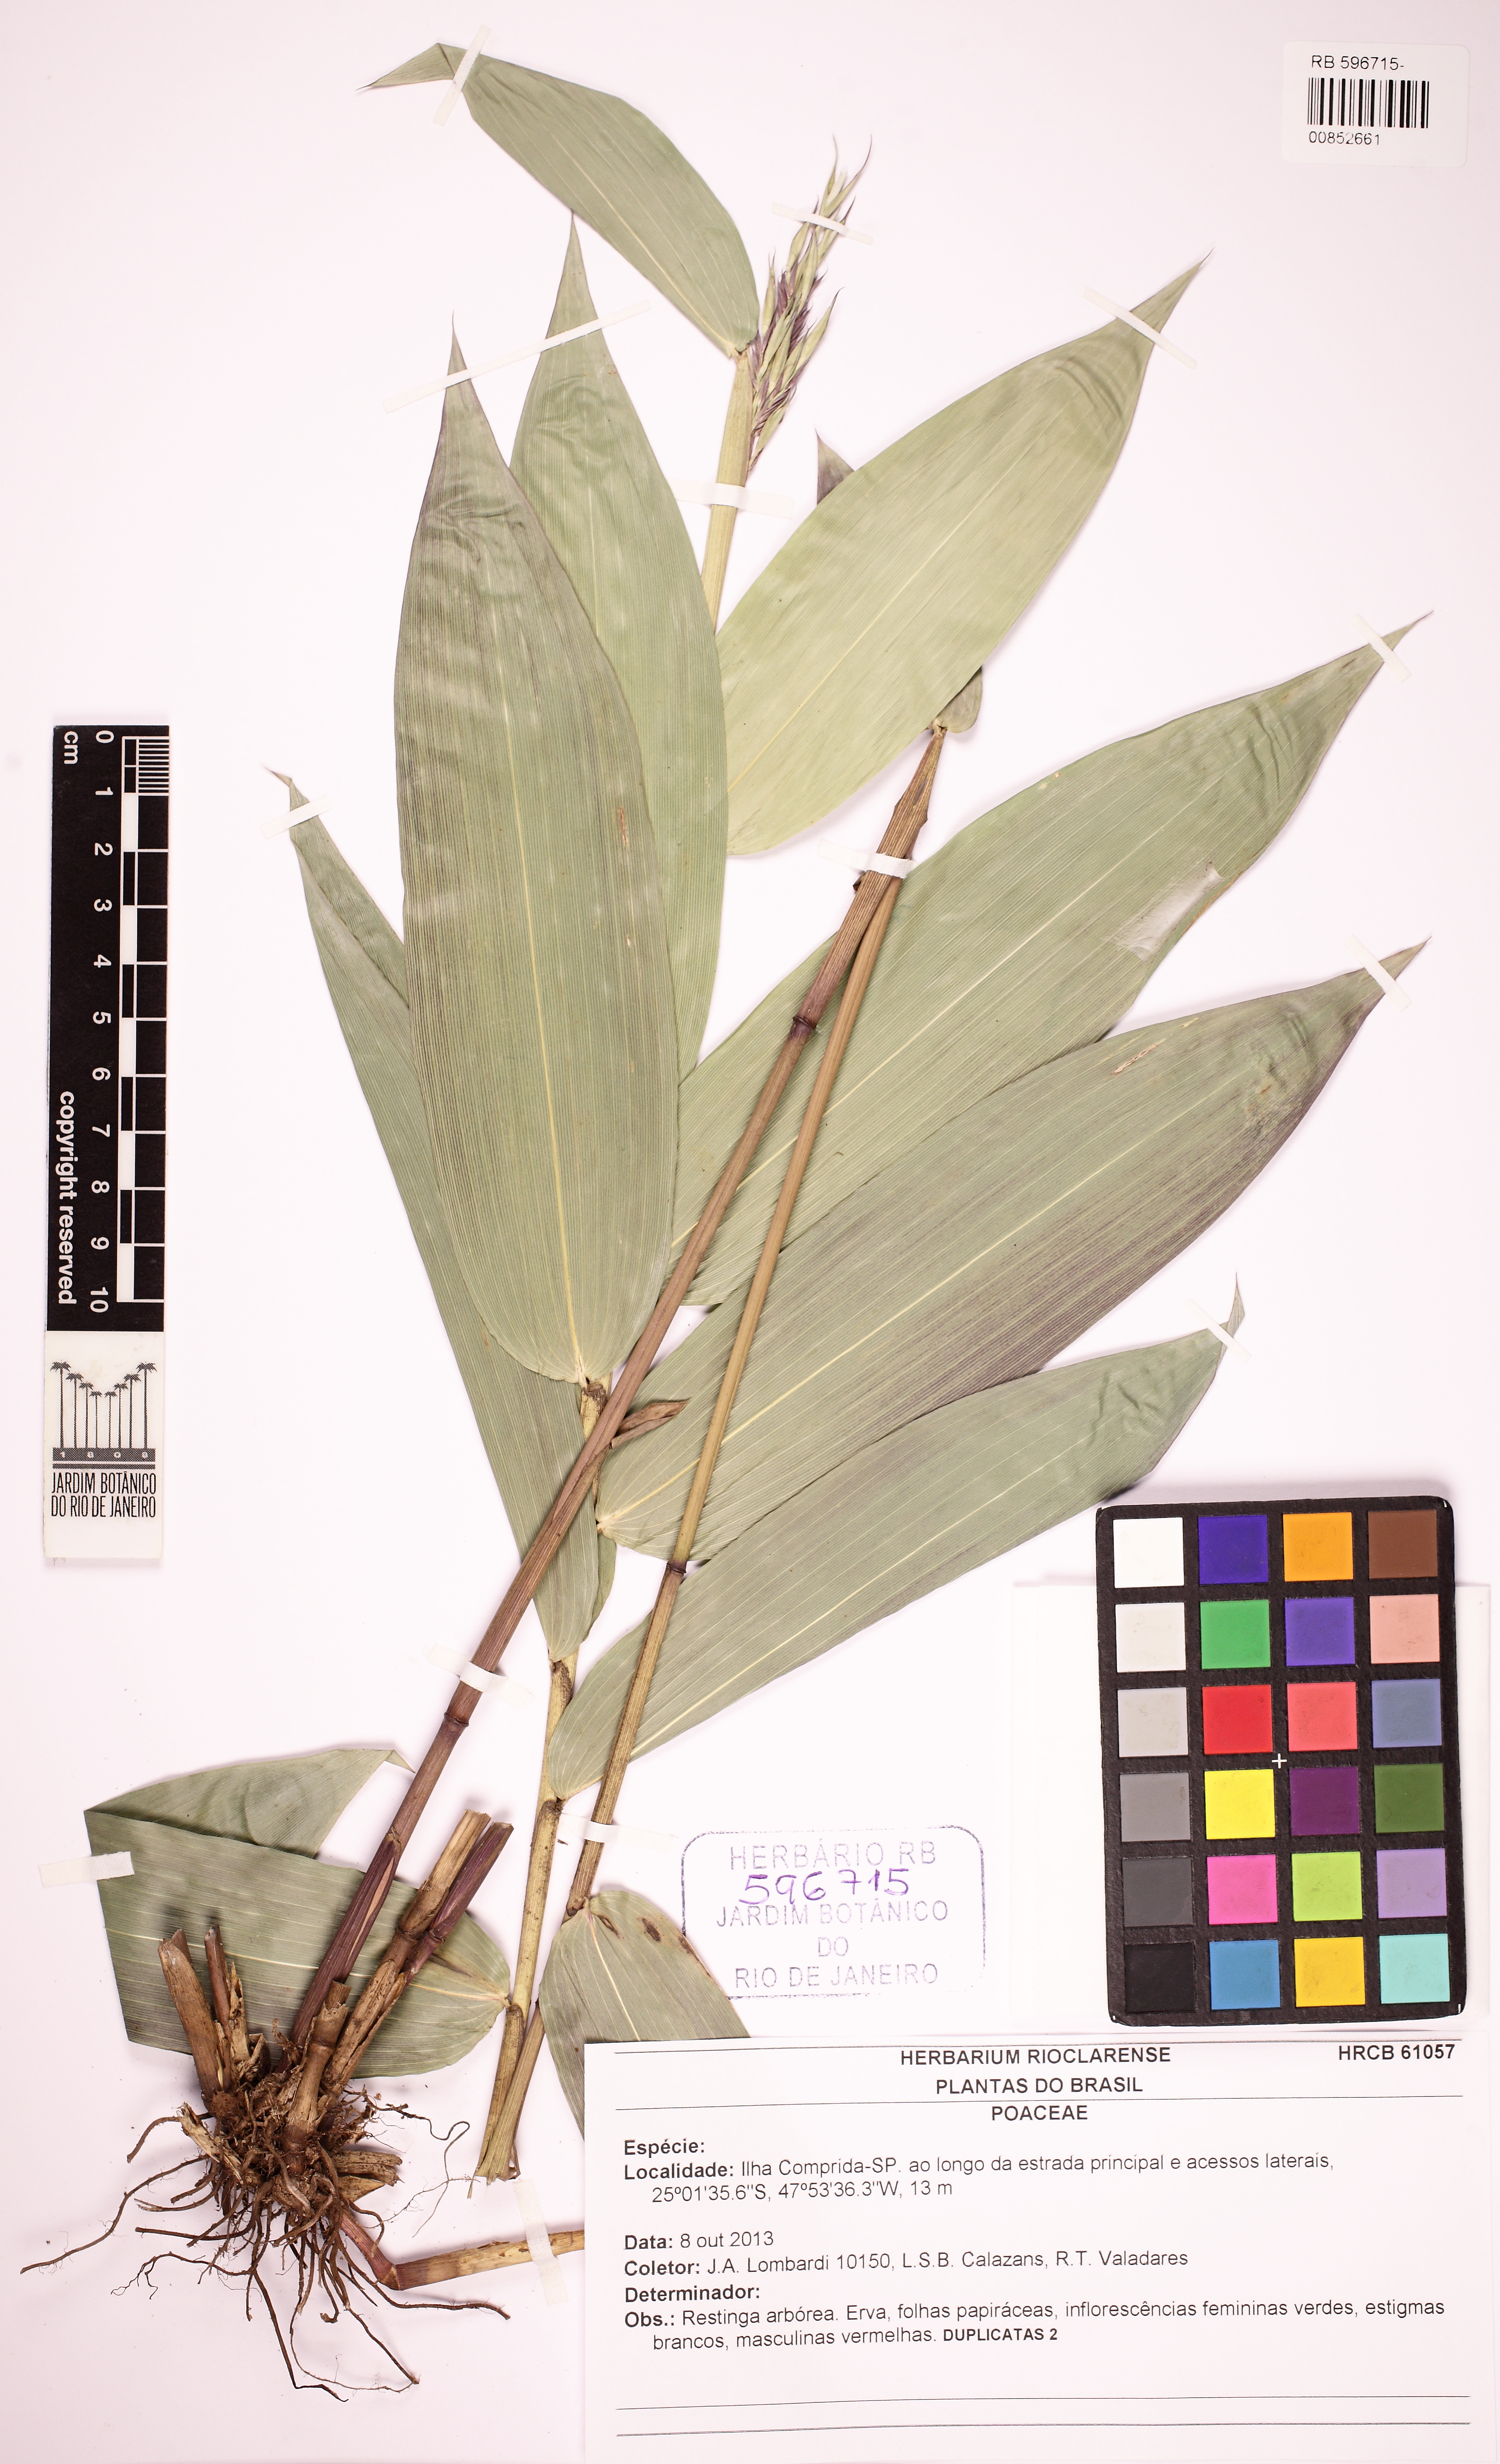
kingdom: Plantae
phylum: Tracheophyta
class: Liliopsida
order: Poales
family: Poaceae
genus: Olyra
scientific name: Olyra
